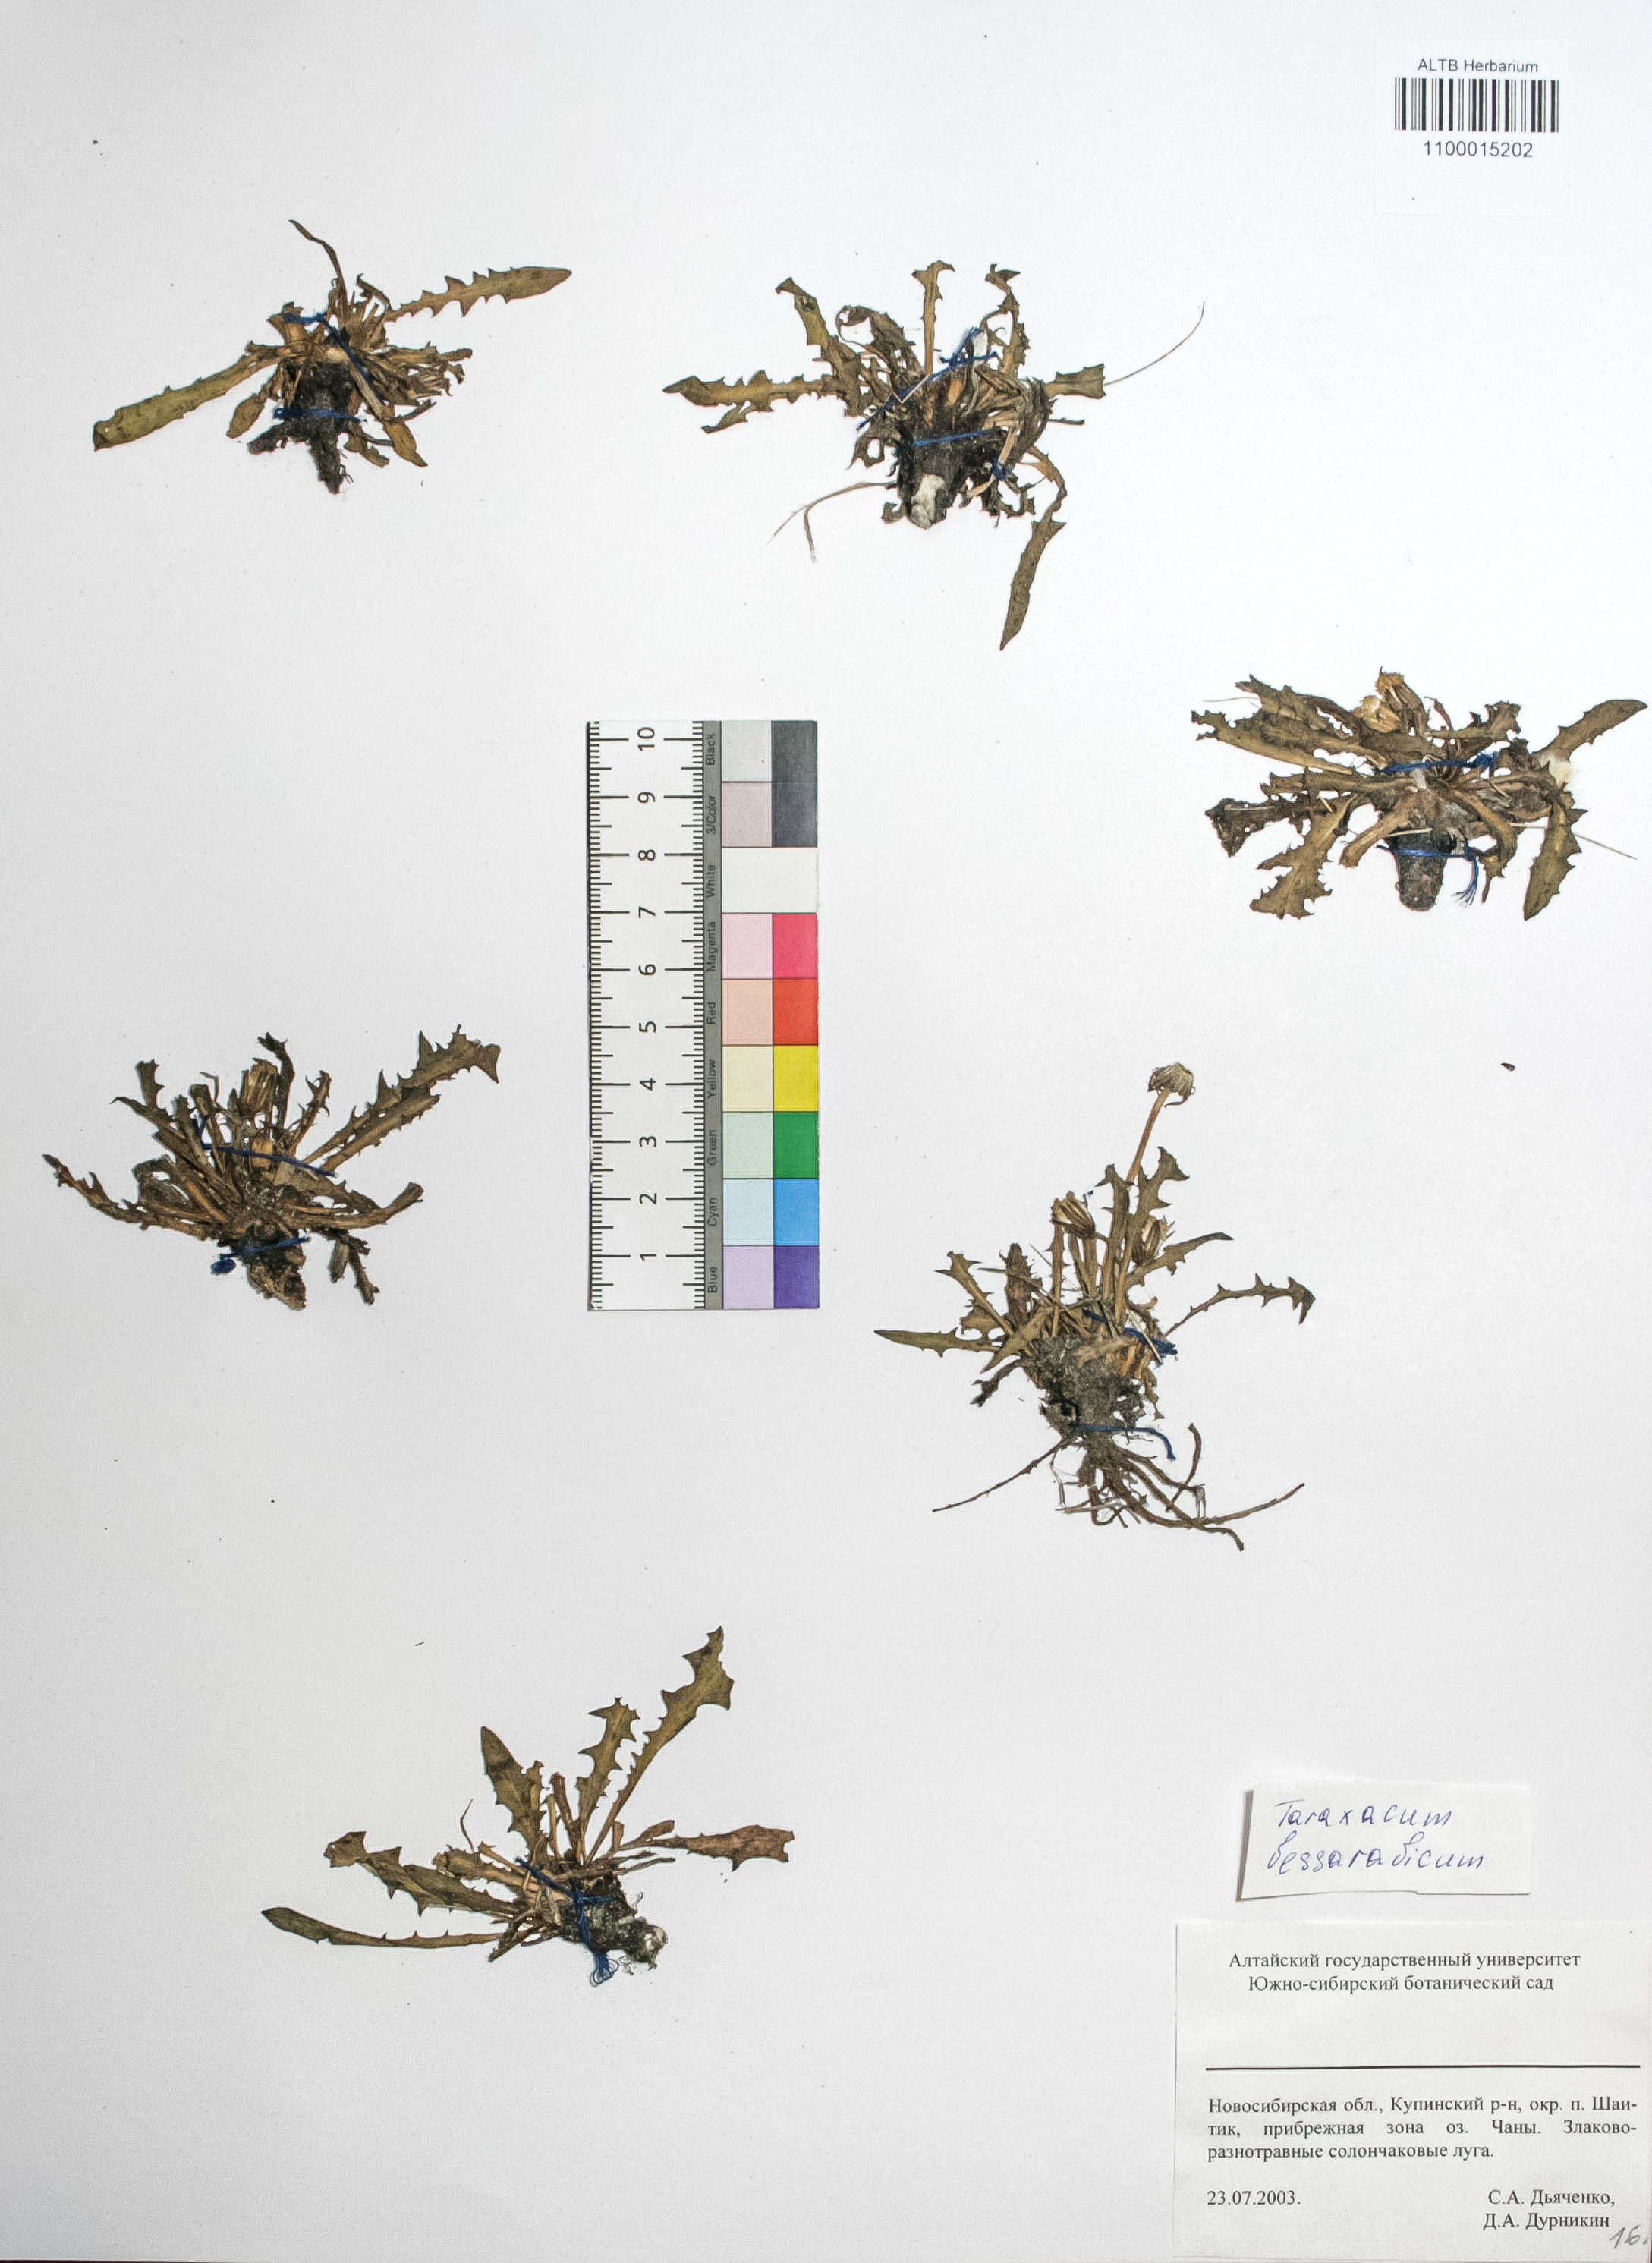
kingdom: Plantae
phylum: Tracheophyta
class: Magnoliopsida
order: Asterales
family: Asteraceae
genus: Taraxacum
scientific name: Taraxacum bessarabicum
